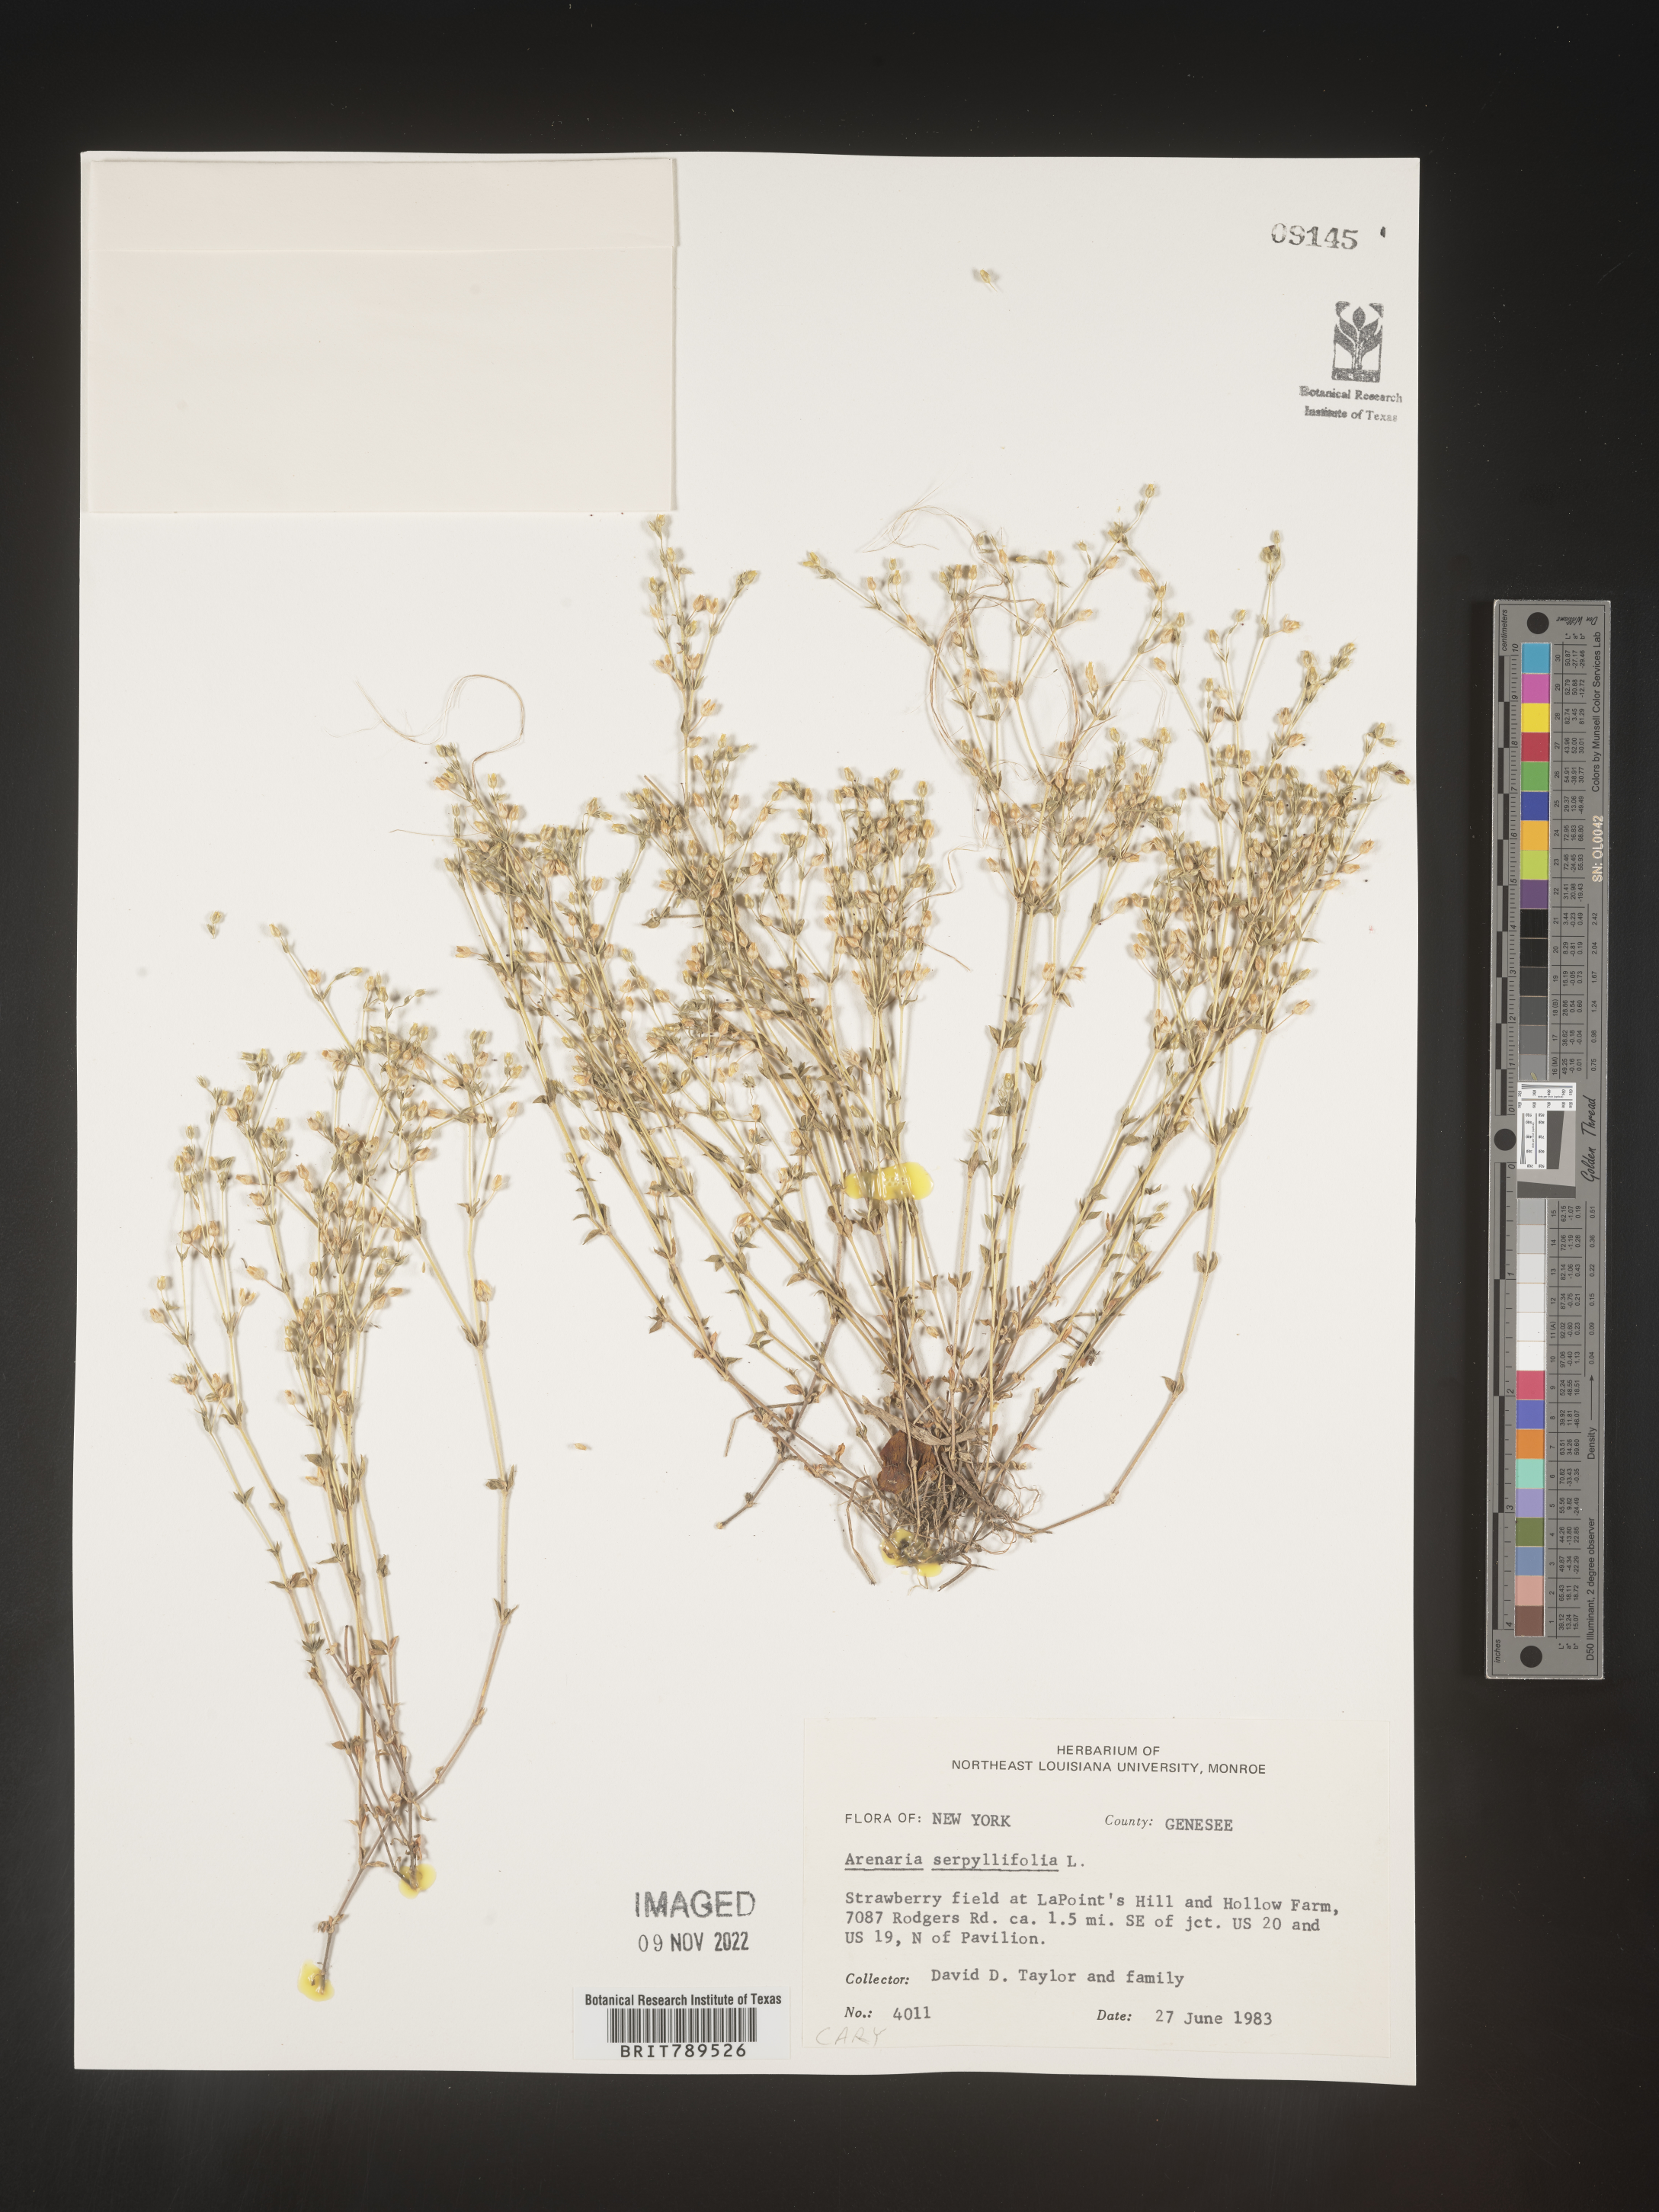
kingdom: Plantae
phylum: Tracheophyta
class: Magnoliopsida
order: Caryophyllales
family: Caryophyllaceae
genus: Arenaria
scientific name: Arenaria serpyllifolia
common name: Thyme-leaved sandwort
